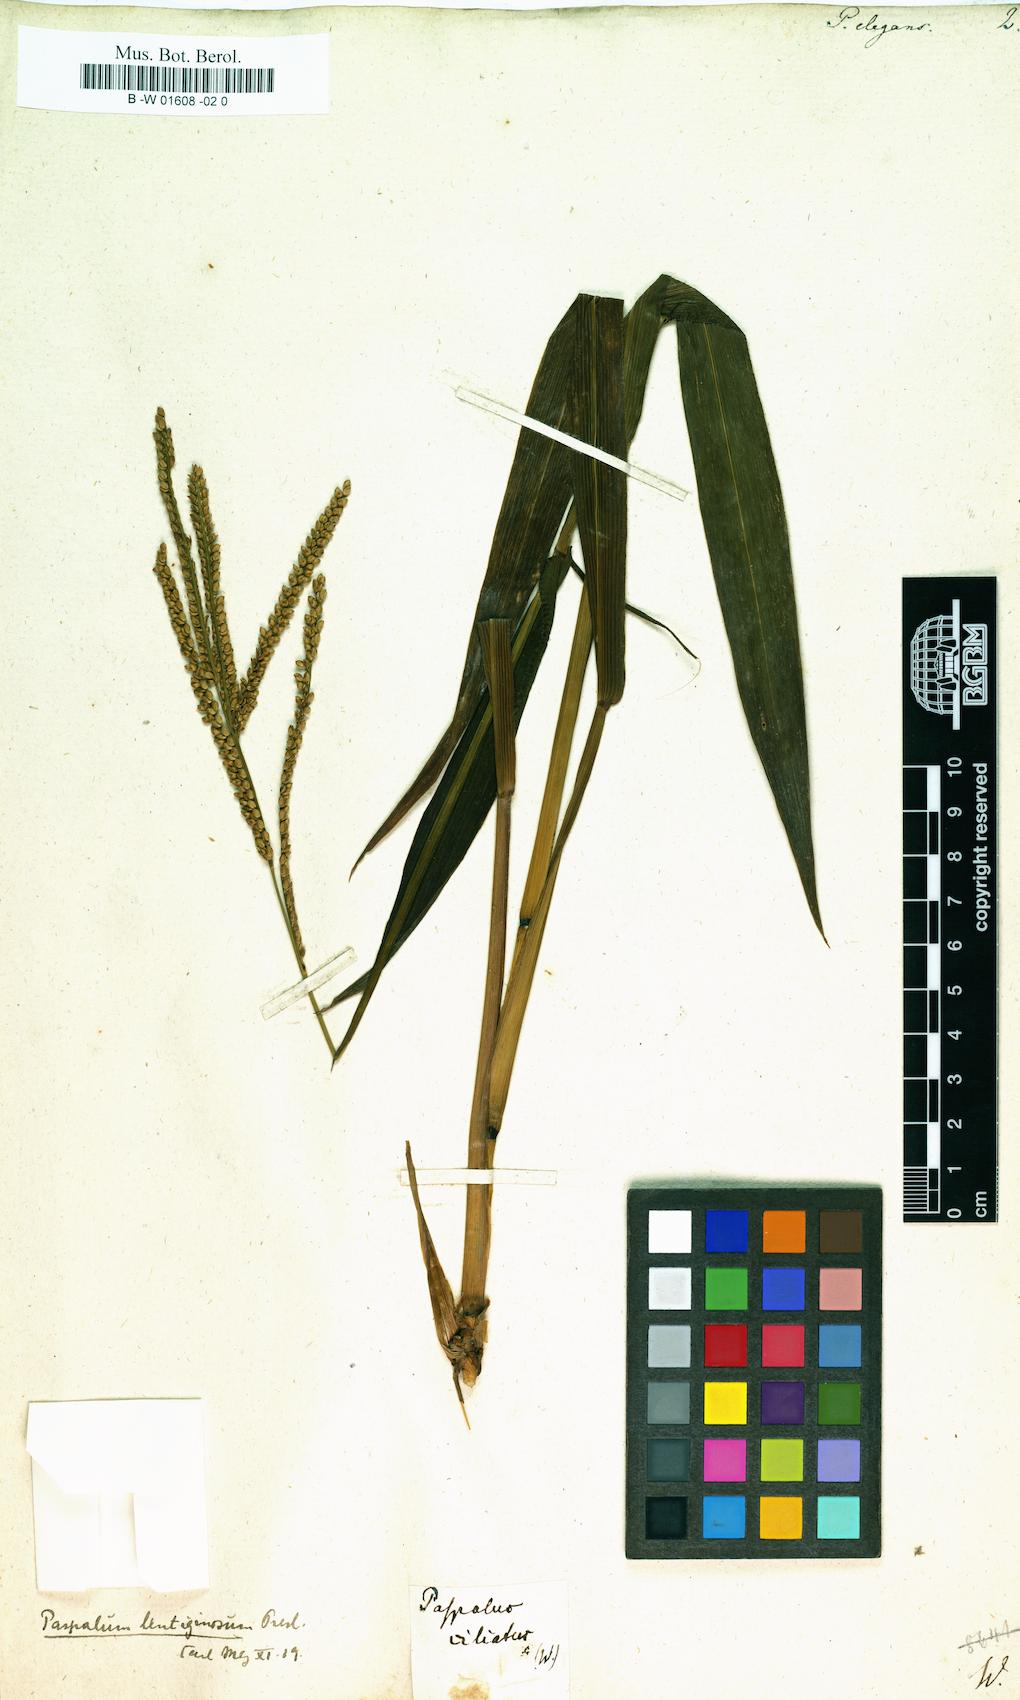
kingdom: Plantae
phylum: Tracheophyta
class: Liliopsida
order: Poales
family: Poaceae
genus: Paspalum
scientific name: Paspalum
